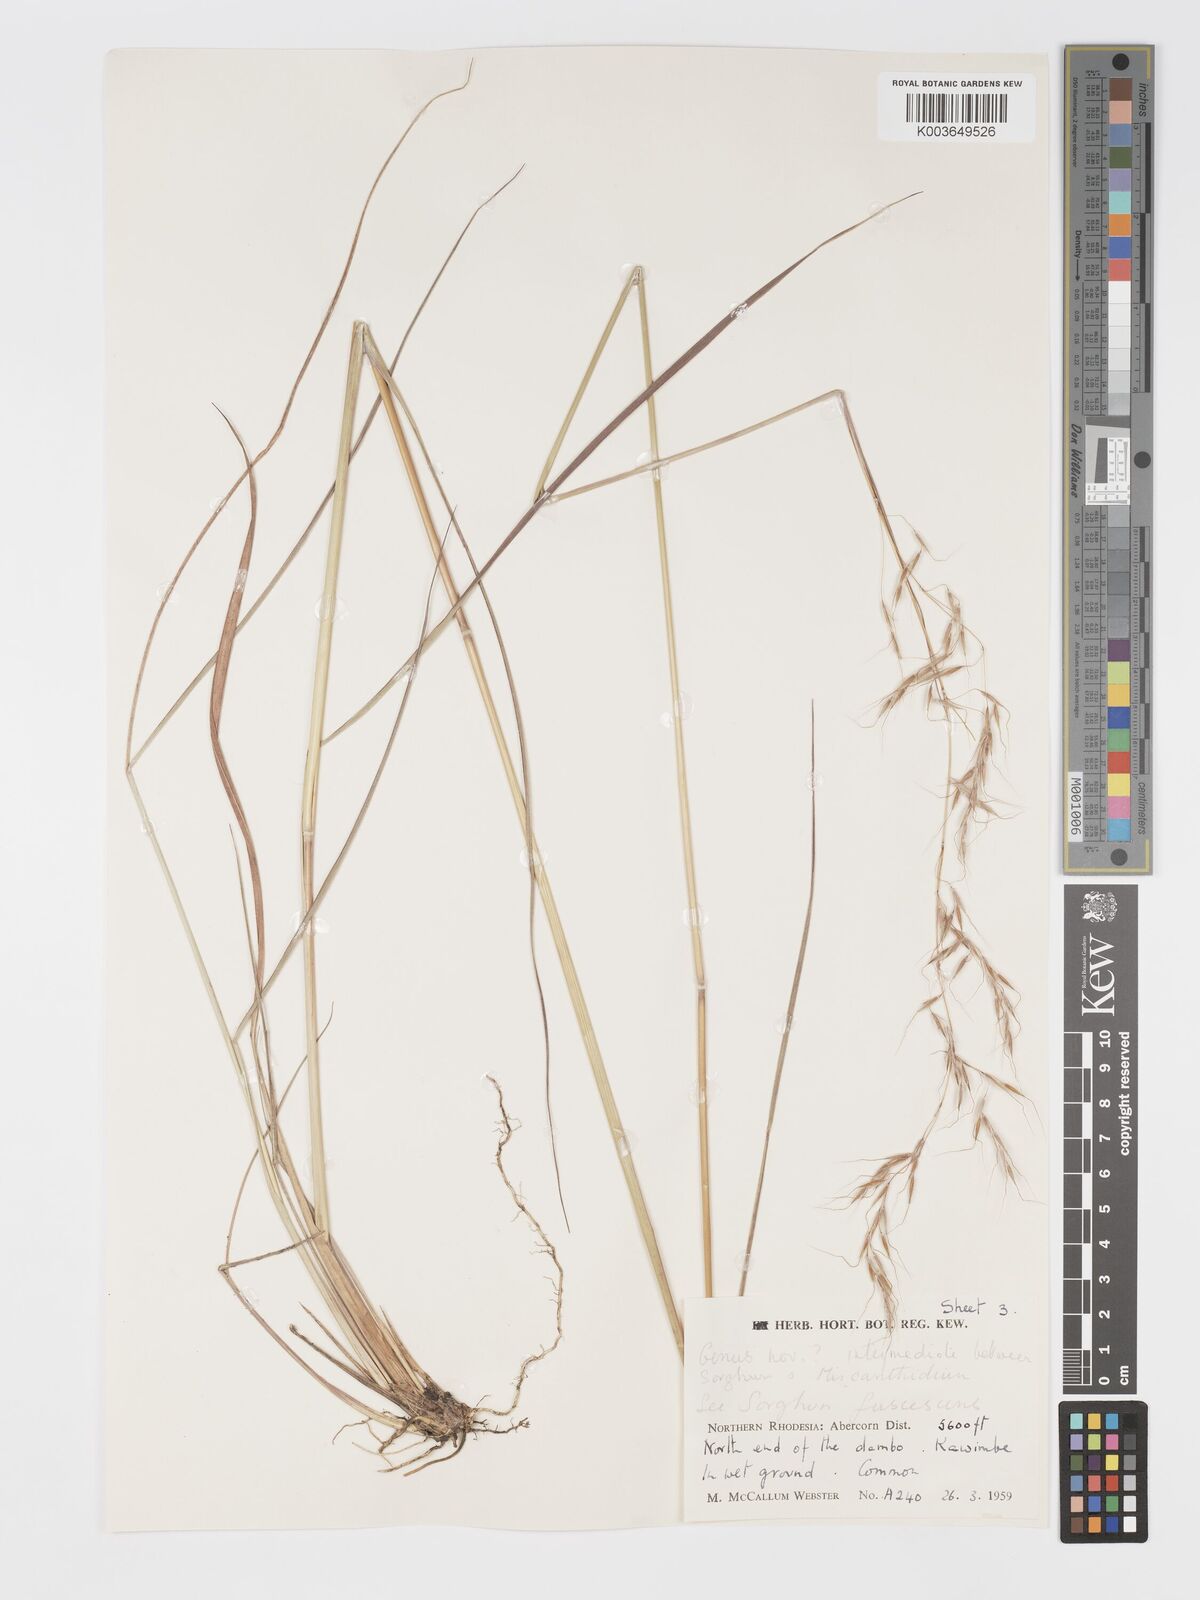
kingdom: Plantae
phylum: Tracheophyta
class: Liliopsida
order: Poales
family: Poaceae
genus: Sorghastrum
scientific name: Sorghastrum nudipes
